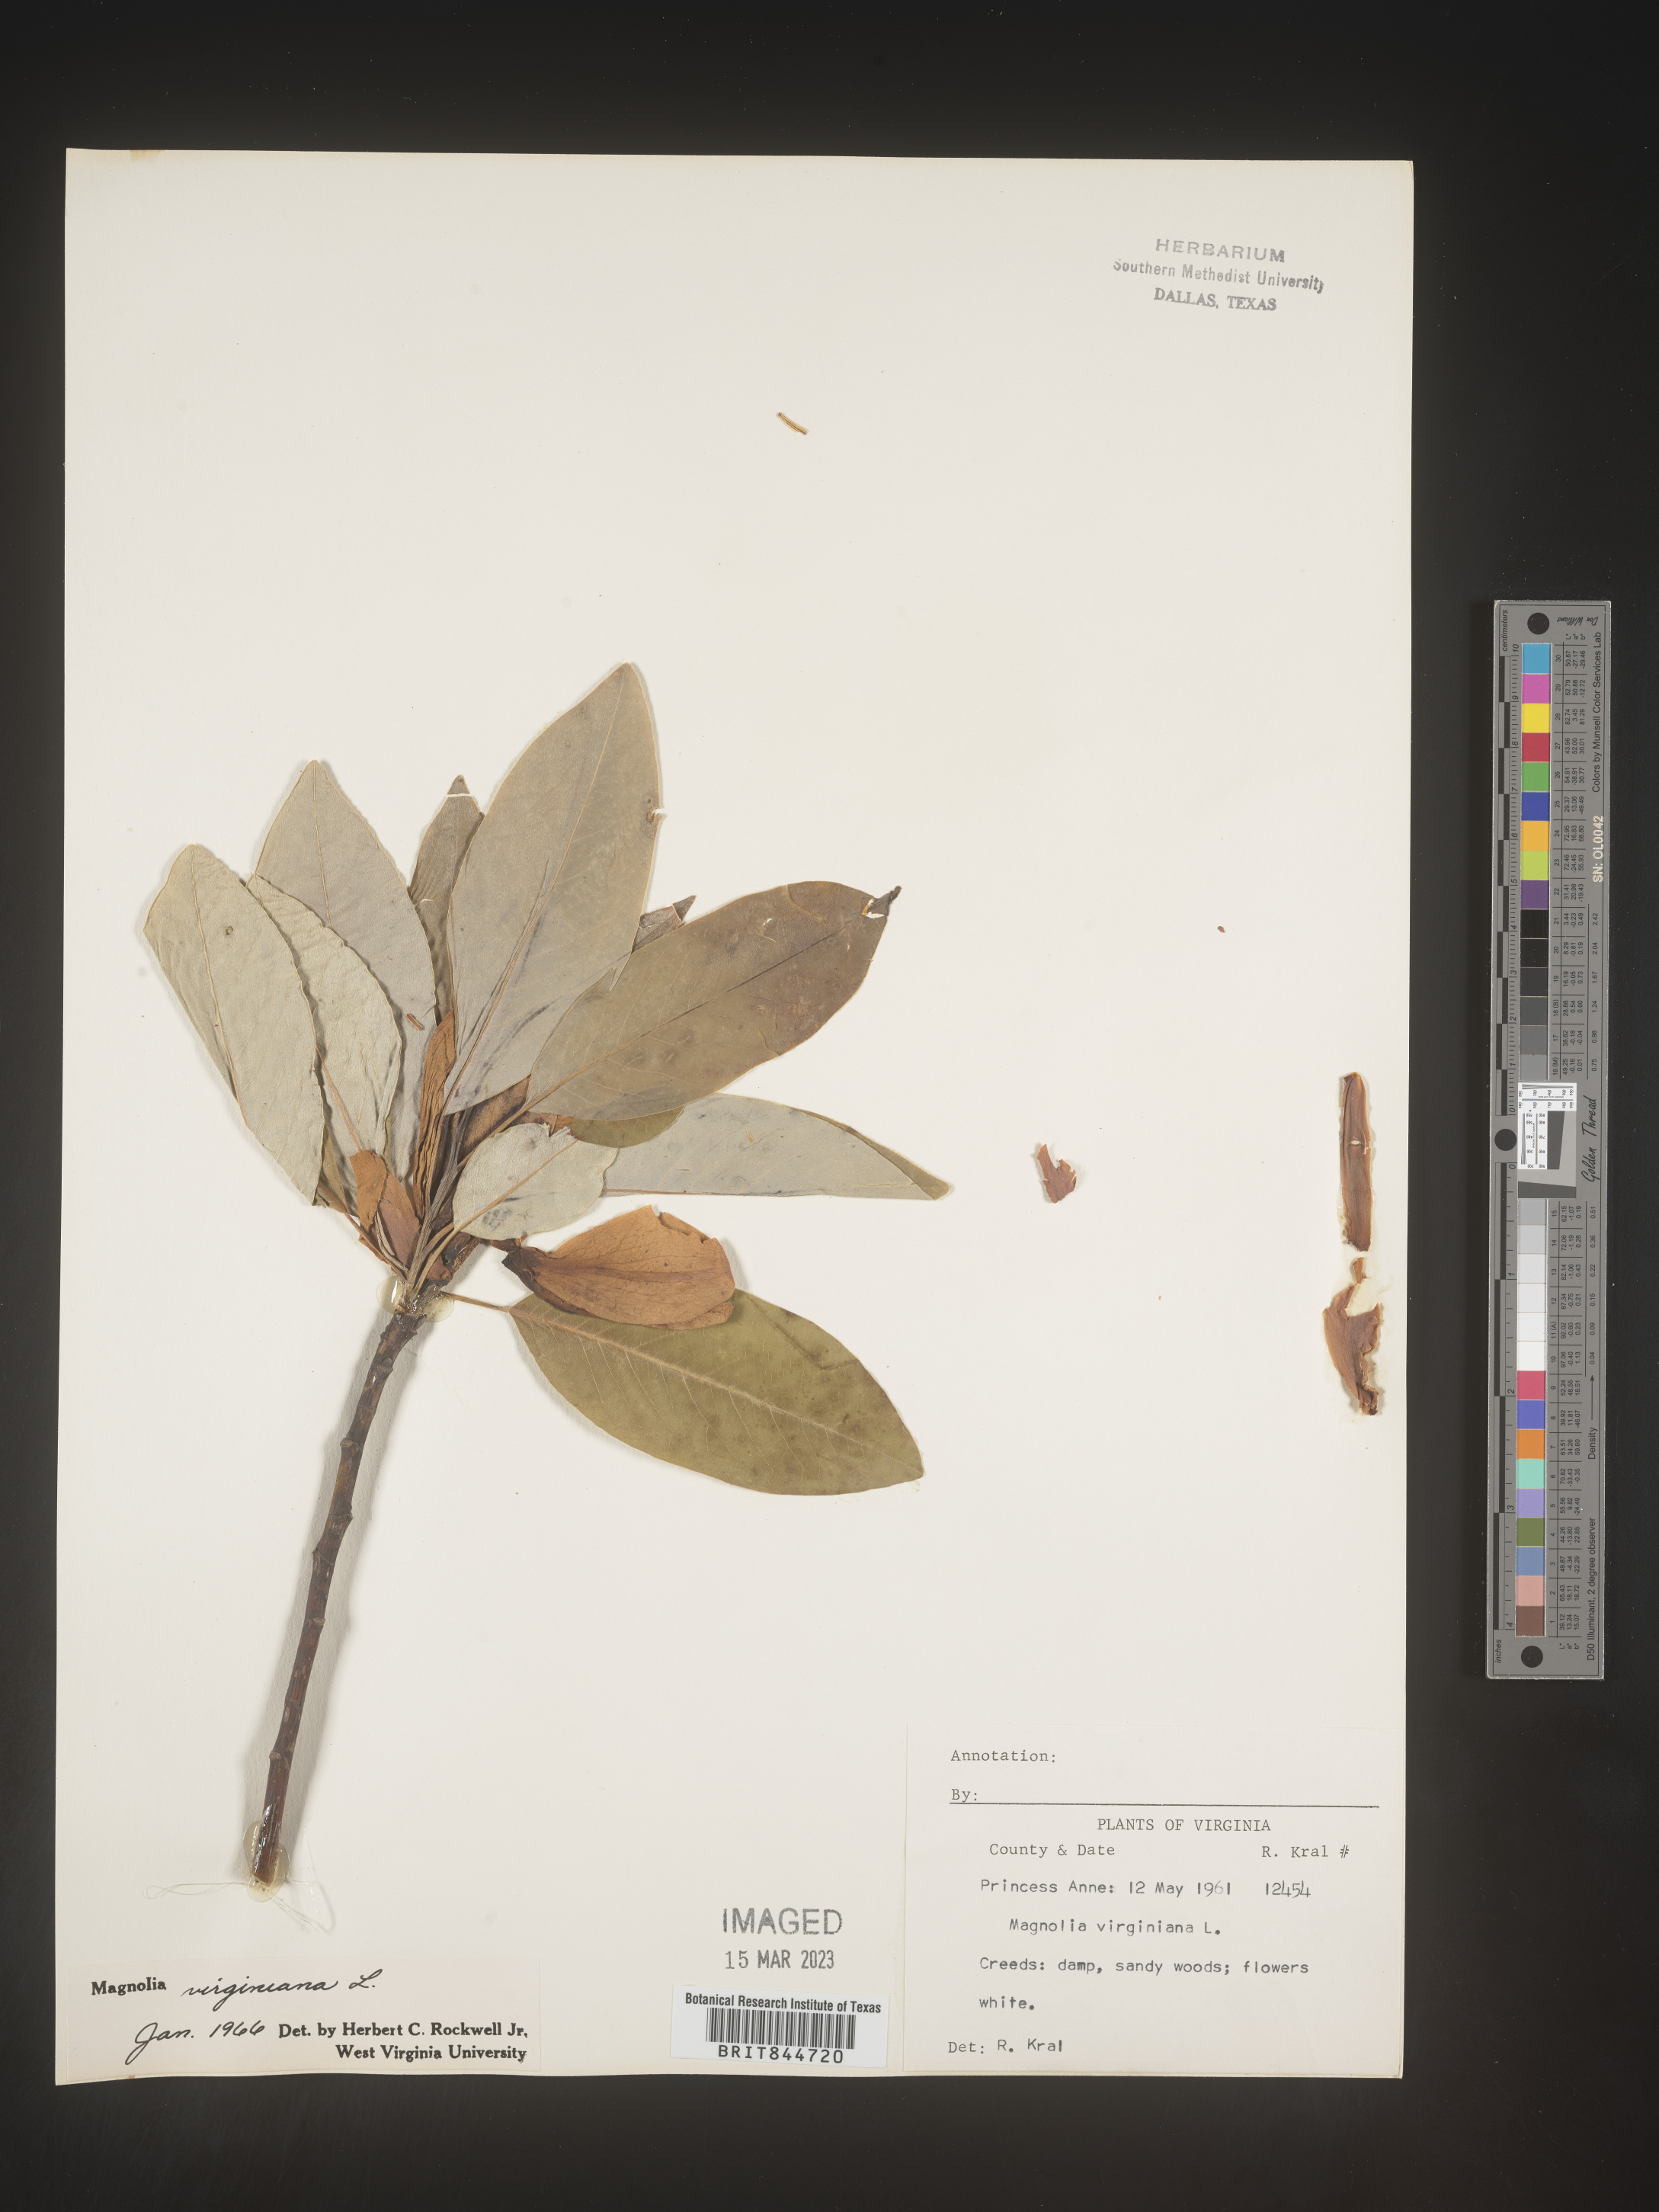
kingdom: Plantae
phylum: Tracheophyta
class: Magnoliopsida
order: Magnoliales
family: Magnoliaceae
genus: Magnolia
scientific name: Magnolia virginiana
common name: Swamp bay
